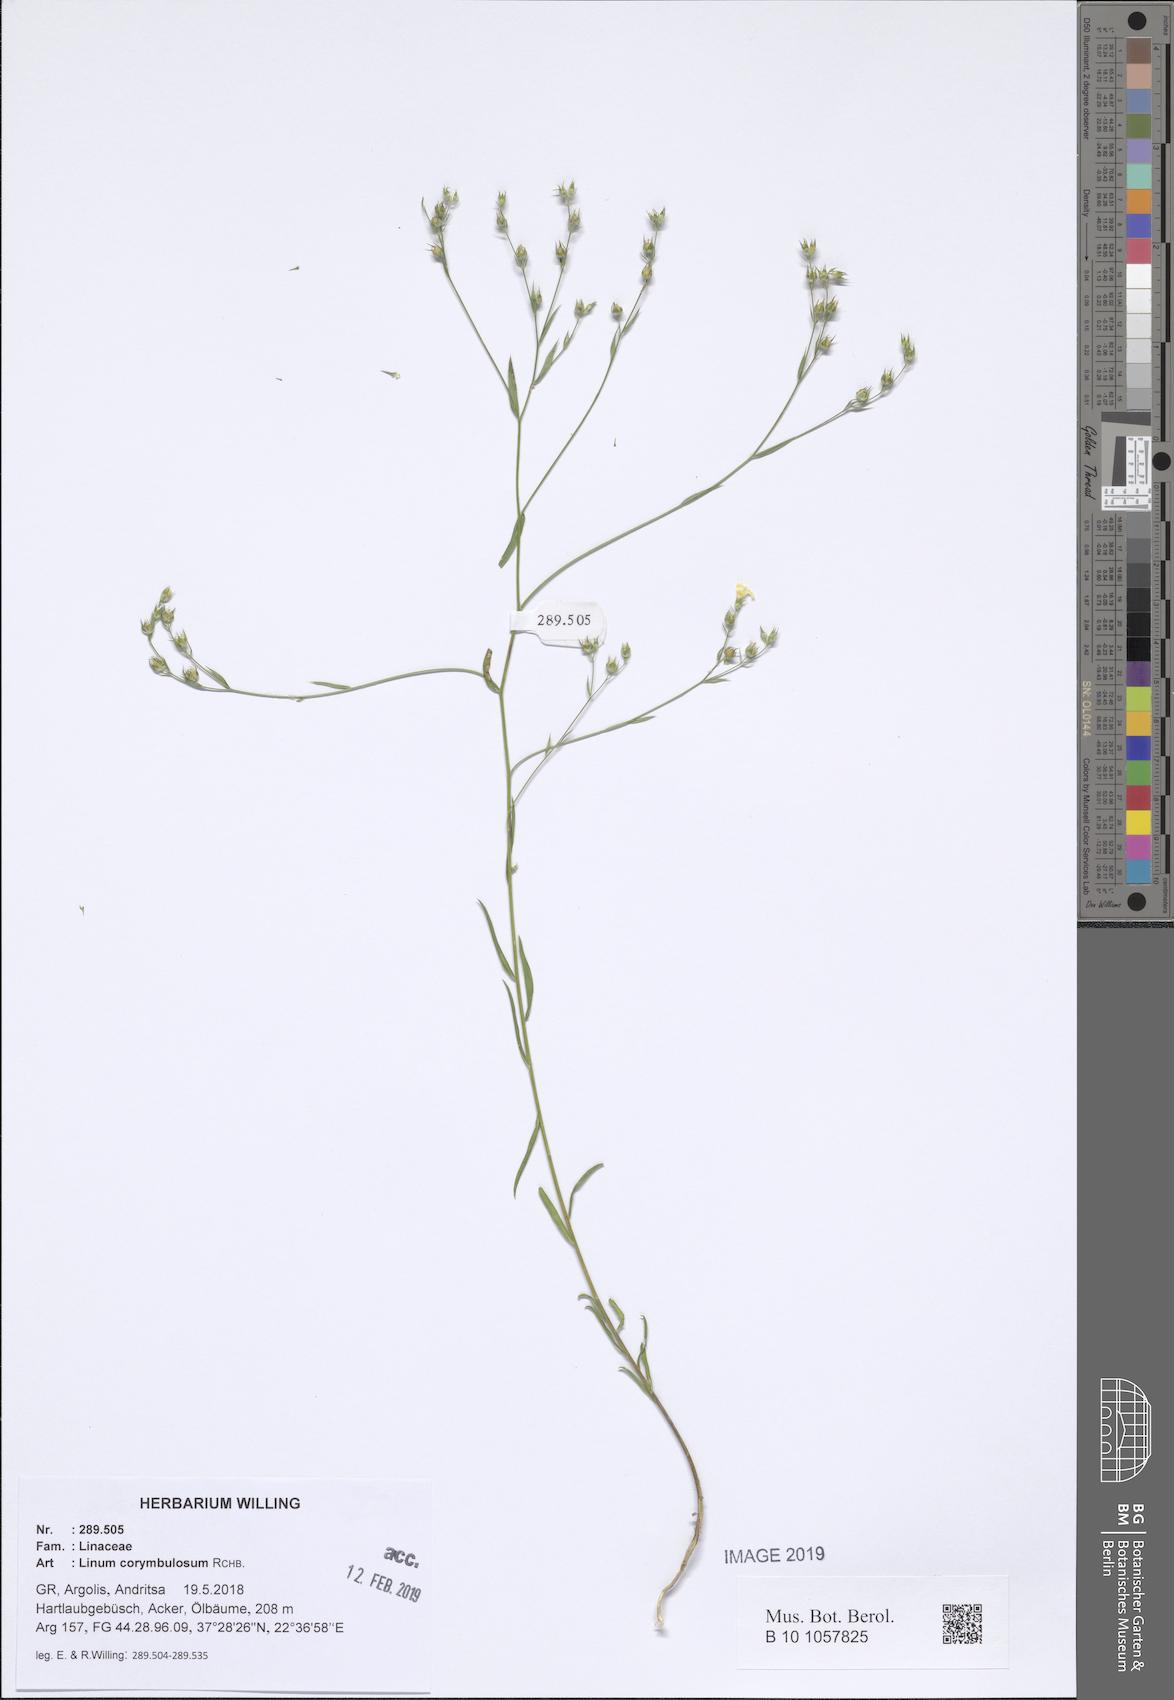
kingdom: Plantae
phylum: Tracheophyta
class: Magnoliopsida
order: Malpighiales
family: Linaceae
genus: Linum
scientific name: Linum corymbulosum
